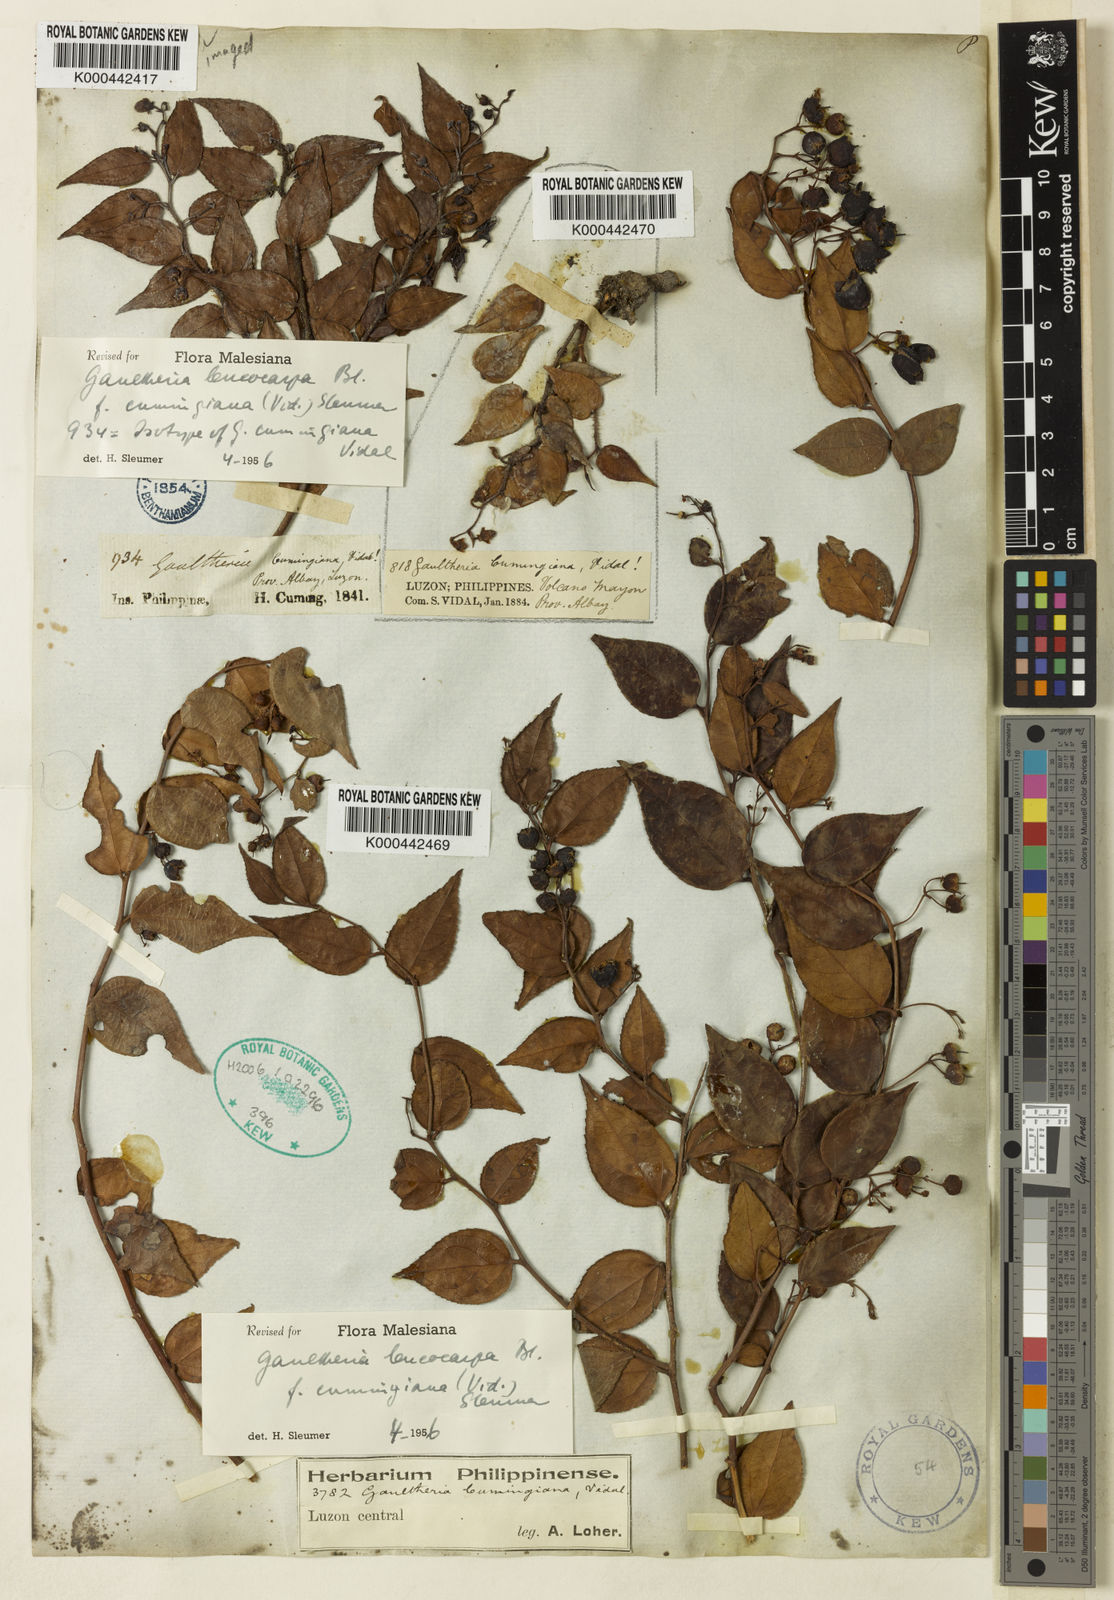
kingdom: Plantae
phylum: Tracheophyta
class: Magnoliopsida
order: Ericales
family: Ericaceae
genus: Gaultheria
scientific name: Gaultheria leucocarpa
